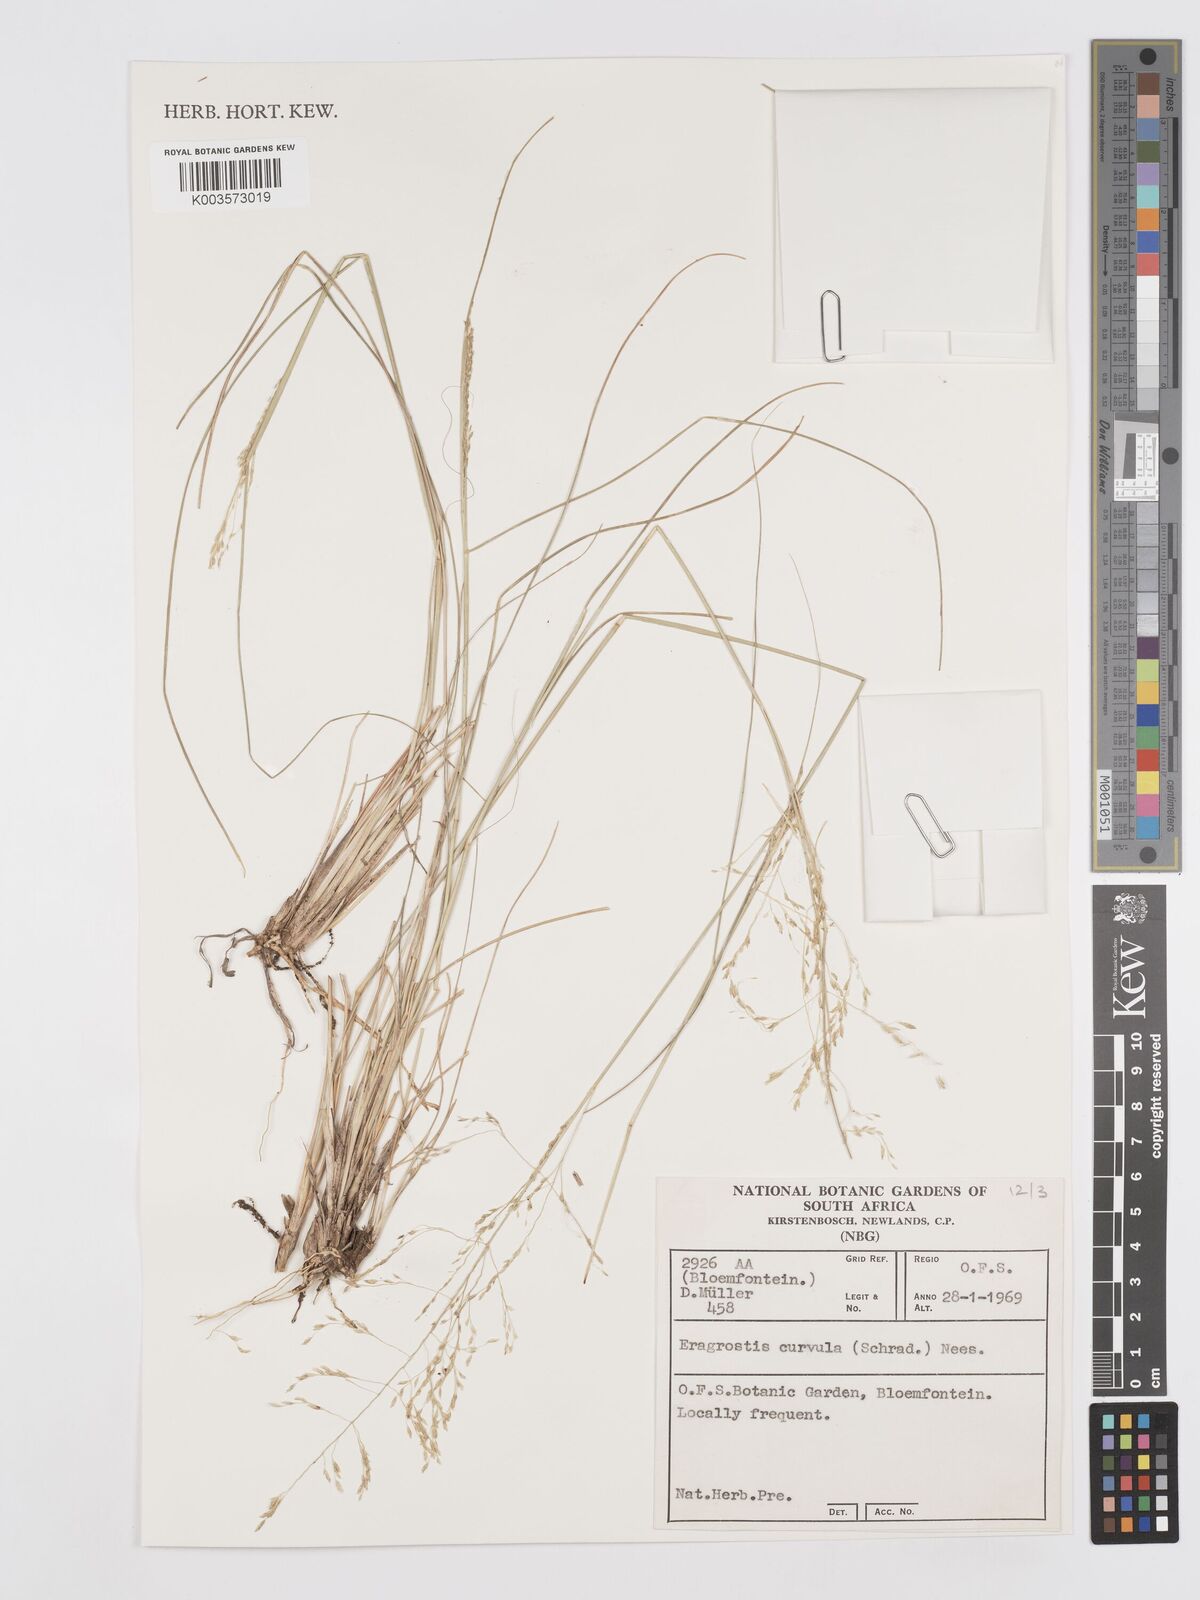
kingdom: Plantae
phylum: Tracheophyta
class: Liliopsida
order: Poales
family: Poaceae
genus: Eragrostis
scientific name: Eragrostis curvula
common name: African love-grass
